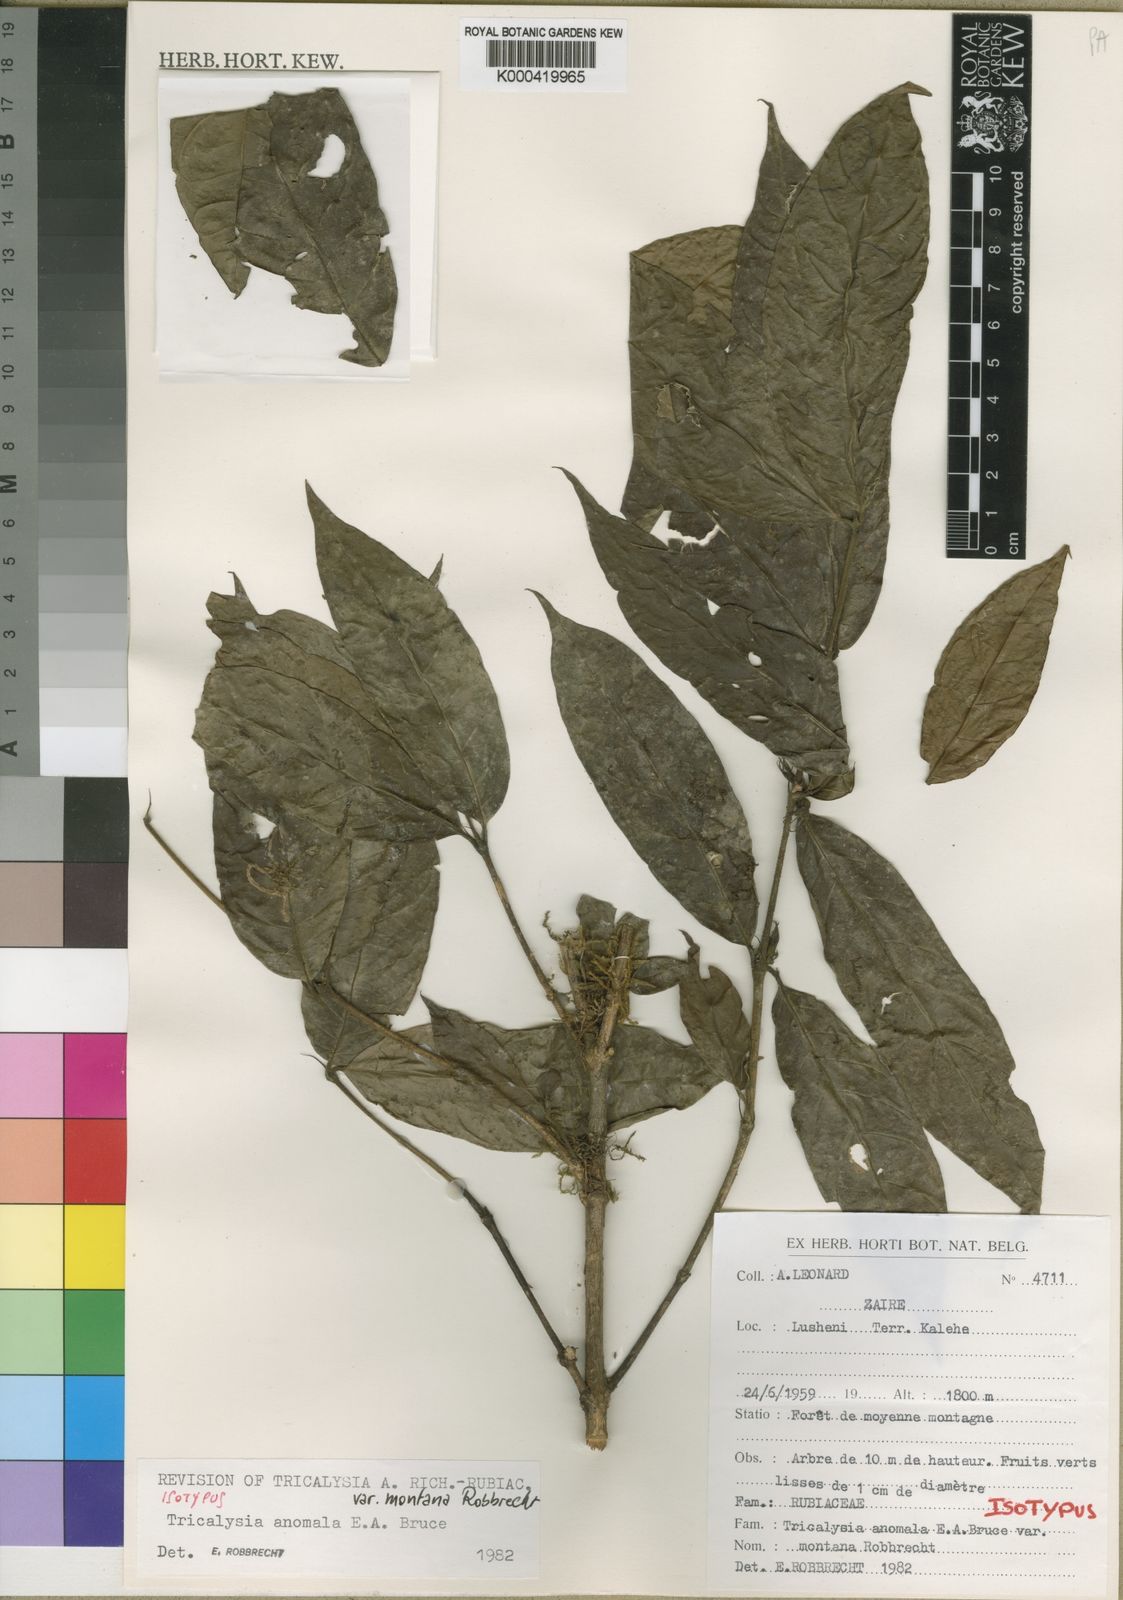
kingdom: Plantae
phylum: Tracheophyta
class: Magnoliopsida
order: Gentianales
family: Rubiaceae
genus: Tricalysia
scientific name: Tricalysia anomala
